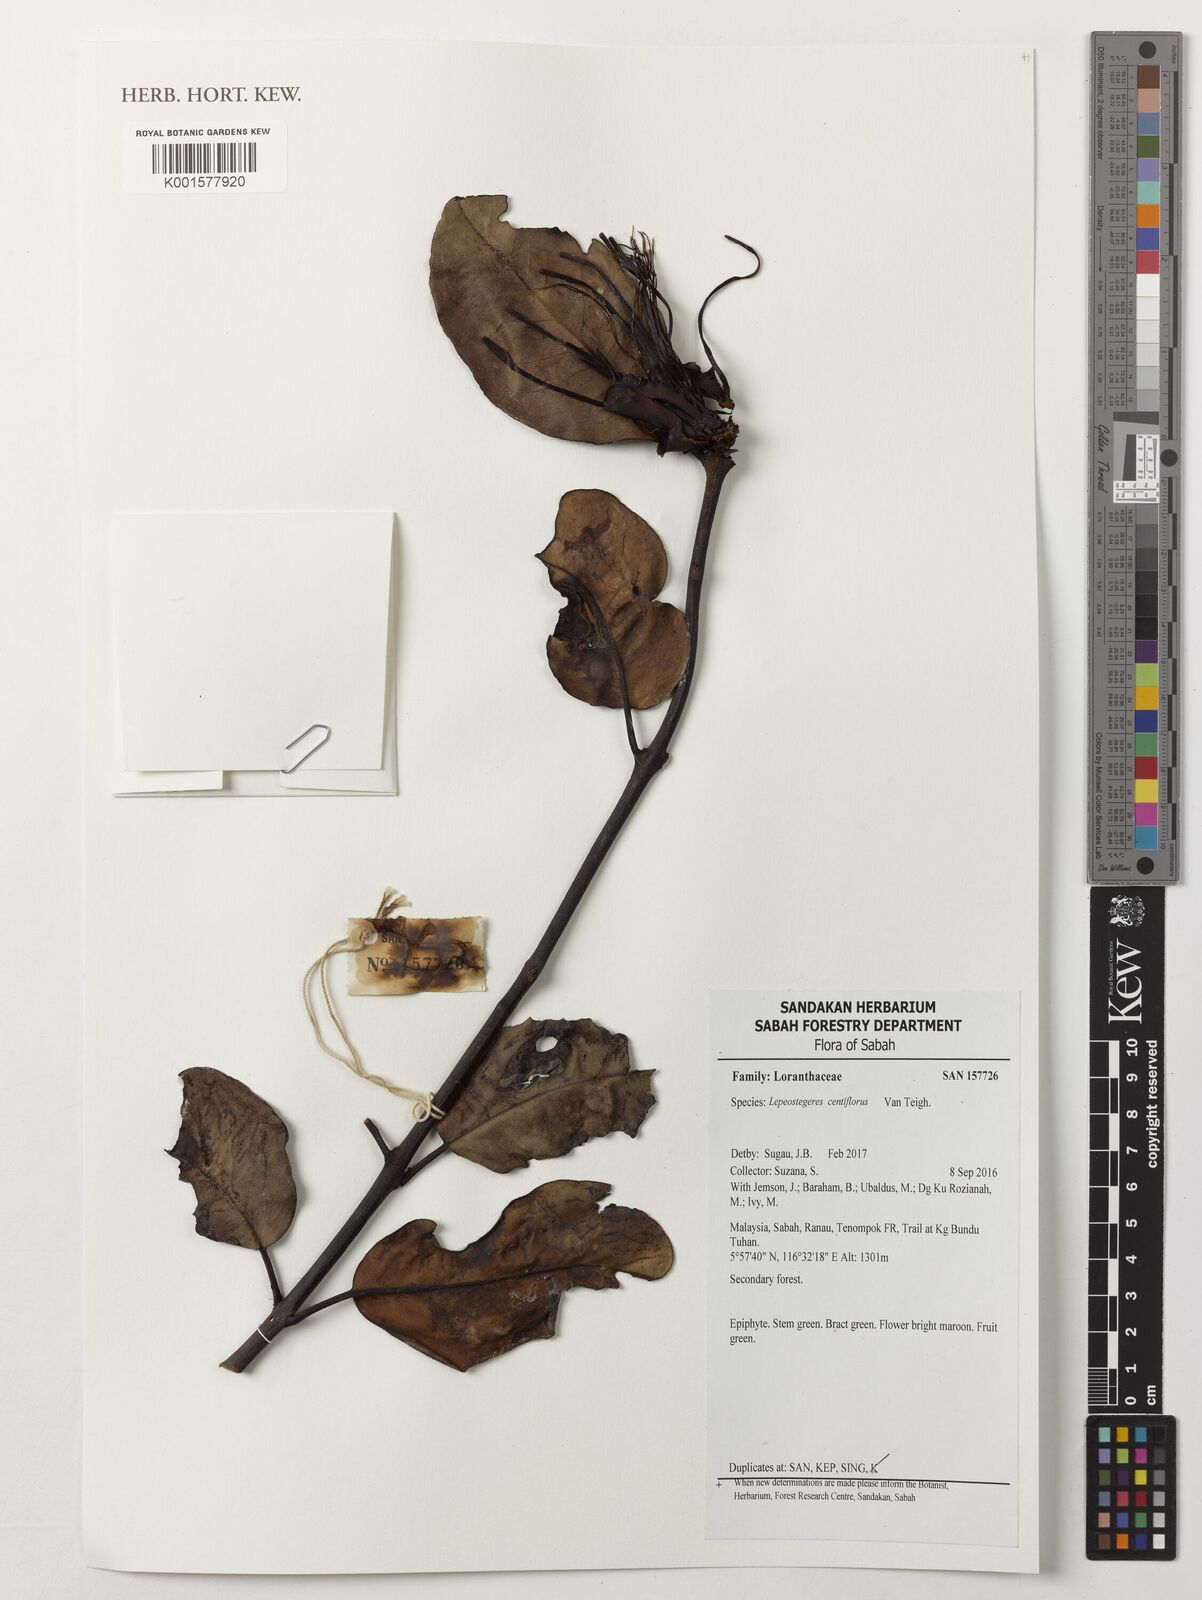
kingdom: Plantae
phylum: Tracheophyta
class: Magnoliopsida
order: Santalales
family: Loranthaceae
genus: Lepeostegeres
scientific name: Lepeostegeres centiflorus
